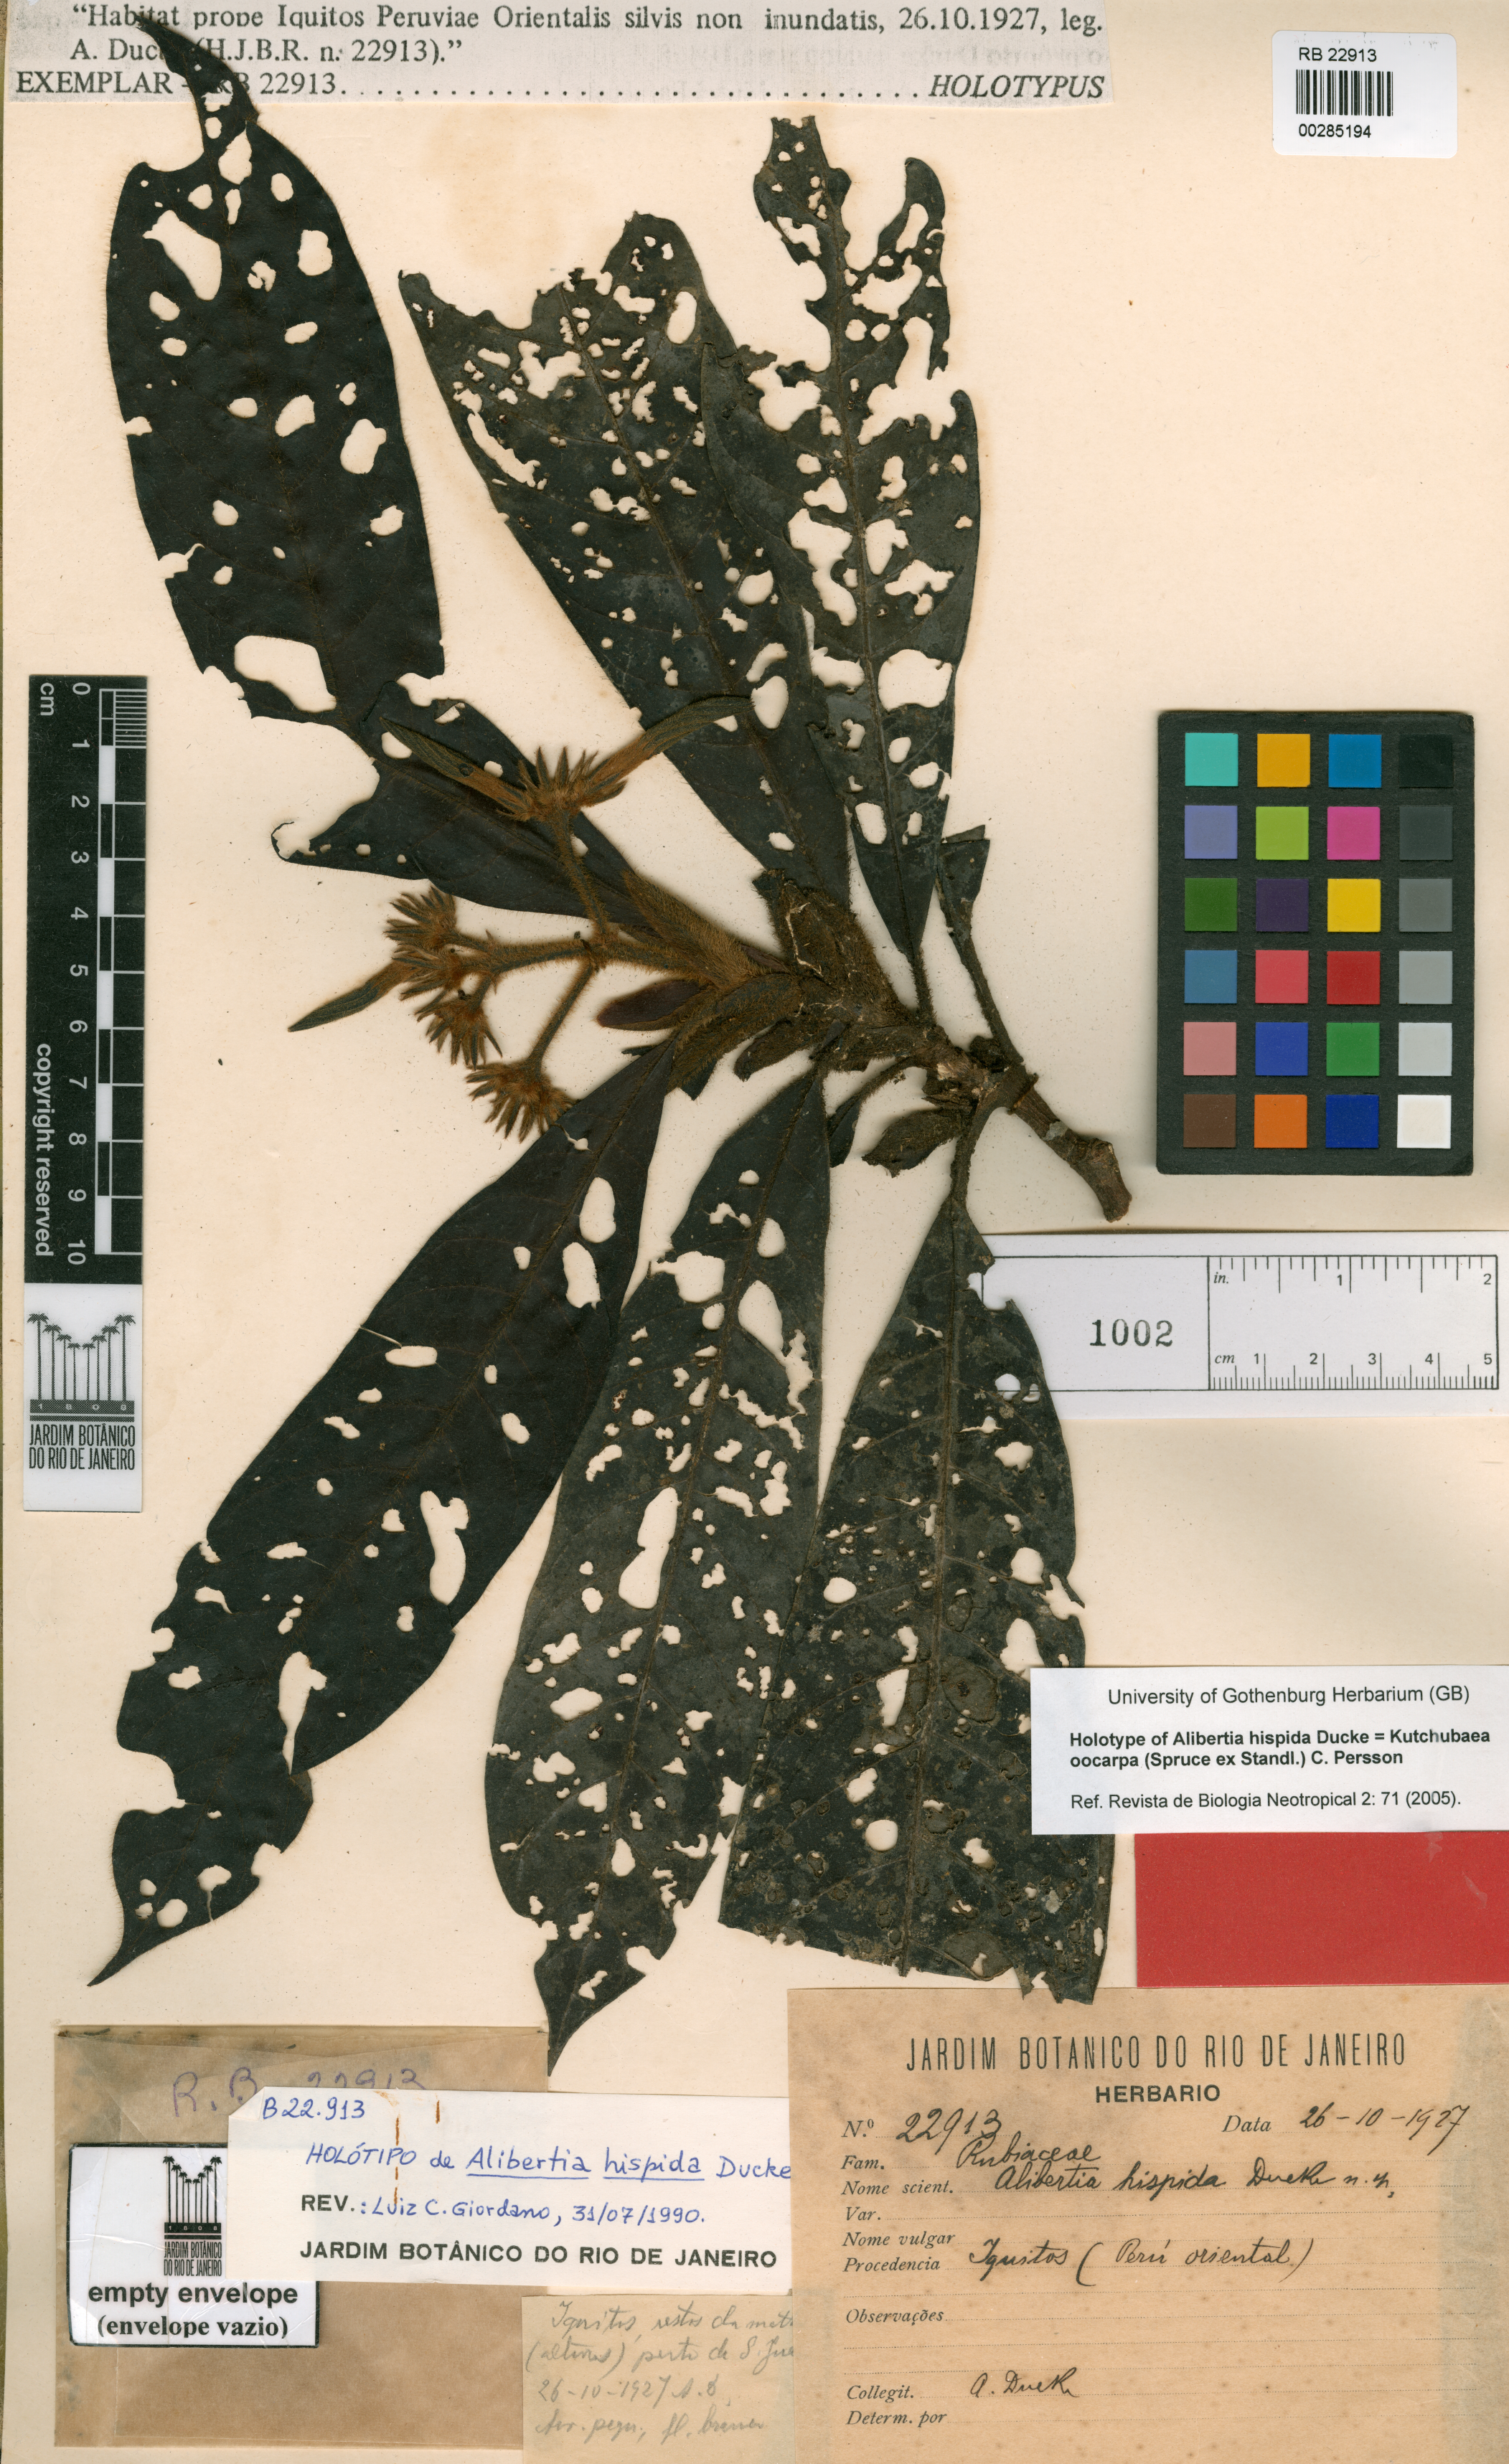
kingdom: Plantae
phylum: Tracheophyta
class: Magnoliopsida
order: Gentianales
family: Rubiaceae
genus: Kutchubaea
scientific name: Kutchubaea oocarpa
